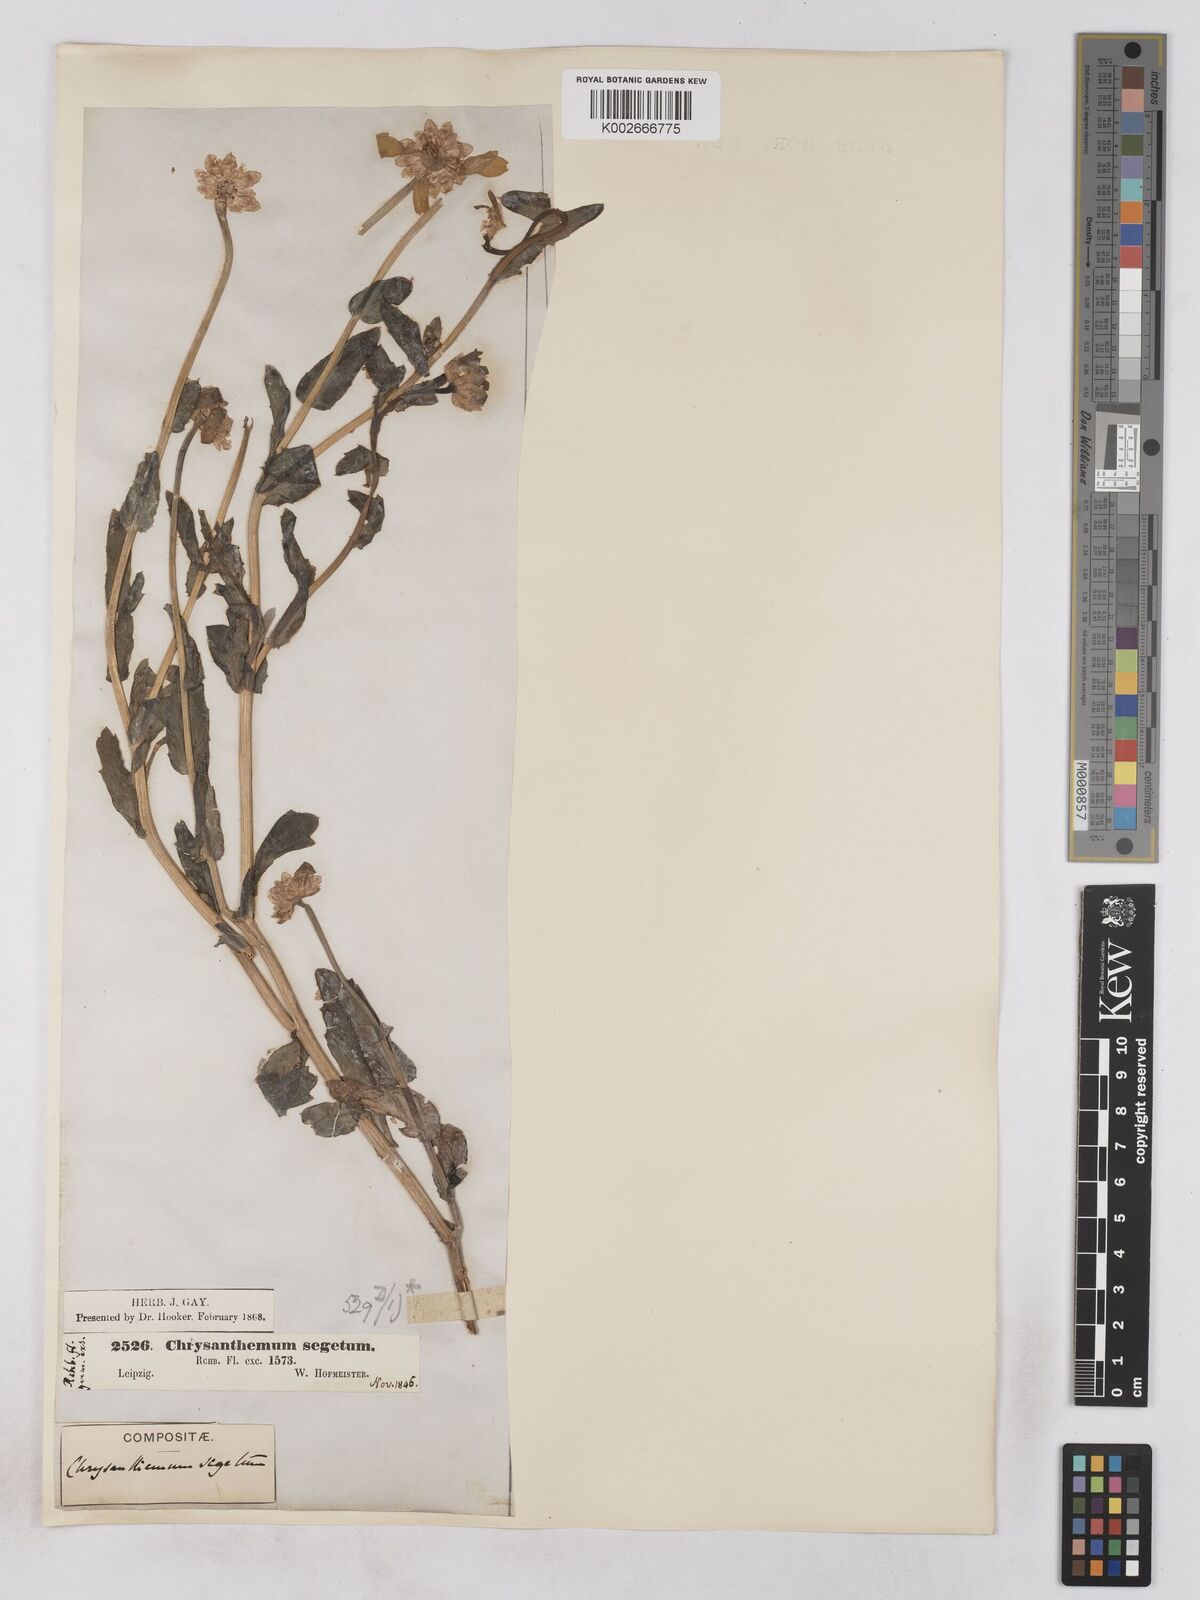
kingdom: Plantae
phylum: Tracheophyta
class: Magnoliopsida
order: Asterales
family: Asteraceae
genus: Glebionis
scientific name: Glebionis segetum
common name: Corndaisy
